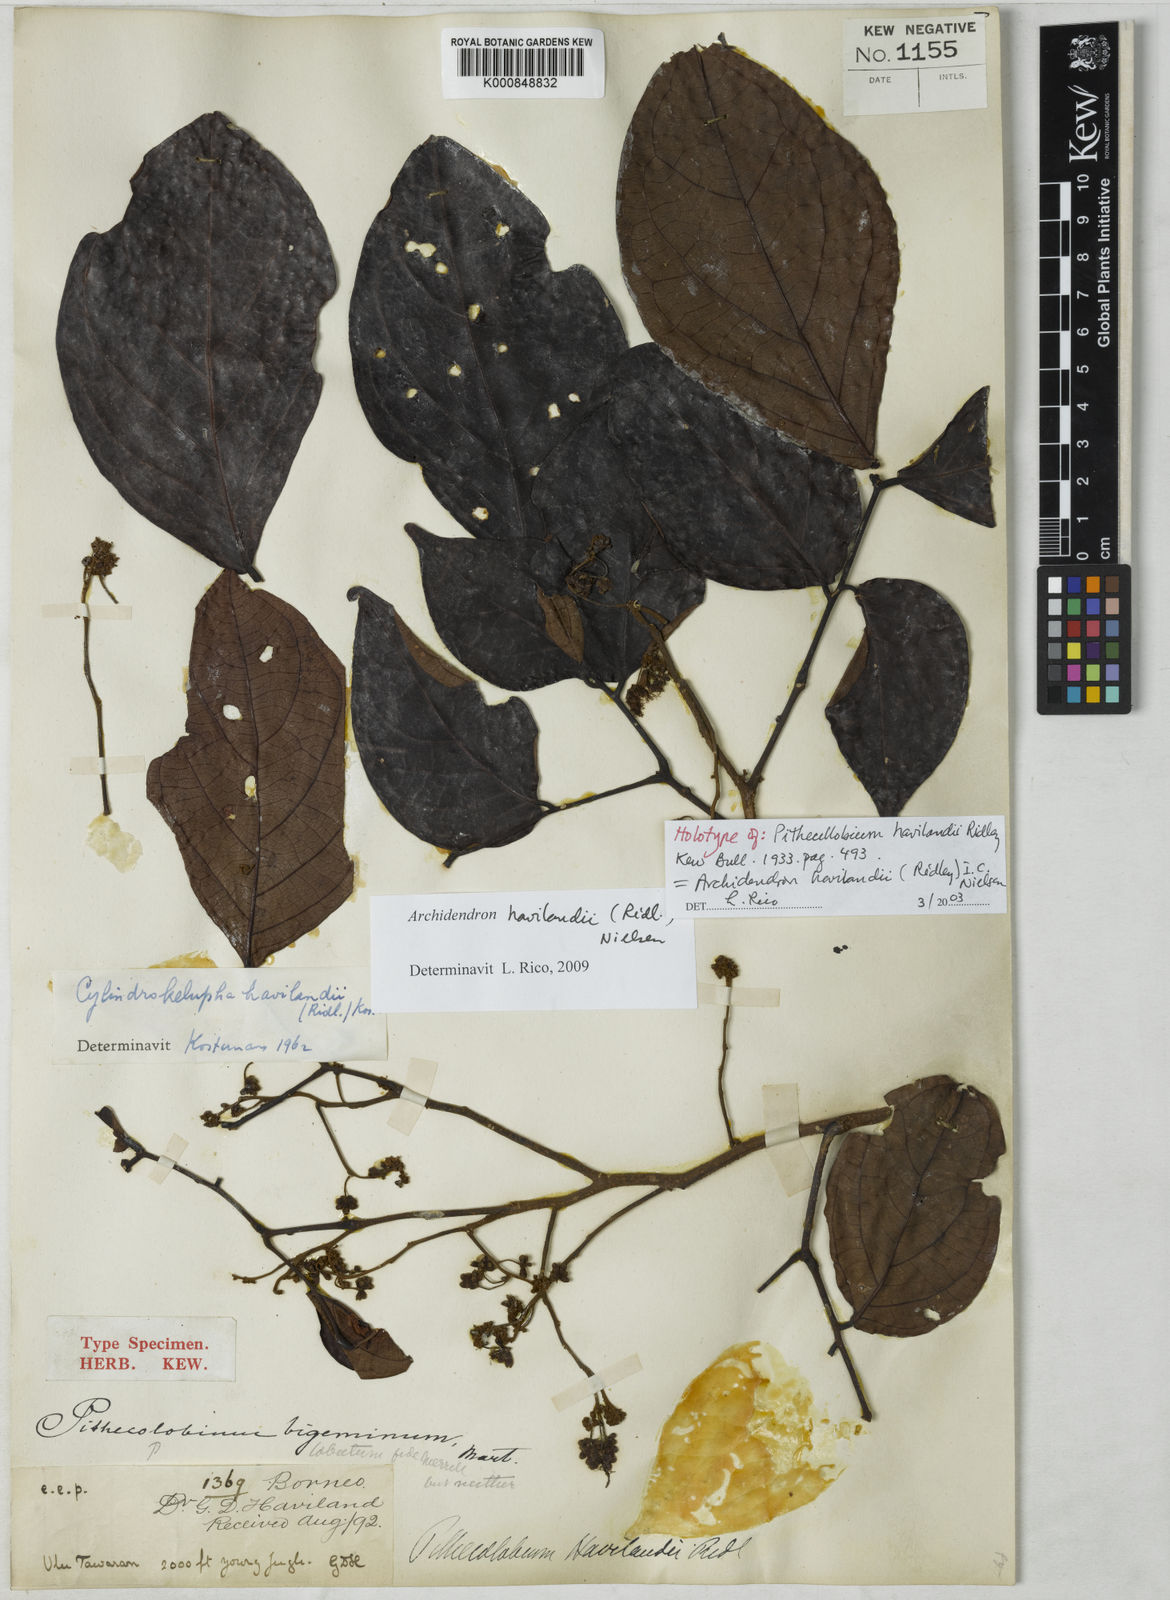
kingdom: Plantae
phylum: Tracheophyta
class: Magnoliopsida
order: Fabales
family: Fabaceae
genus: Archidendron
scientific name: Archidendron havilandii
